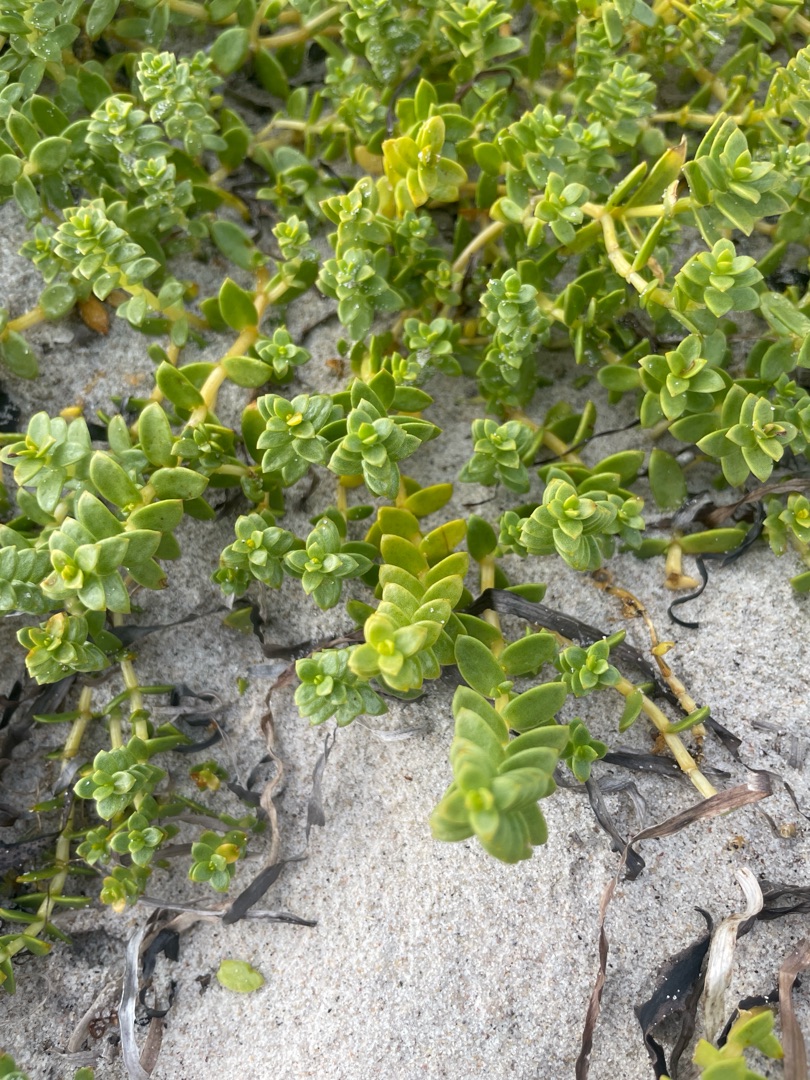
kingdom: Plantae
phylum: Tracheophyta
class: Magnoliopsida
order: Caryophyllales
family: Caryophyllaceae
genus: Honckenya
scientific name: Honckenya peploides
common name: Strandarve
